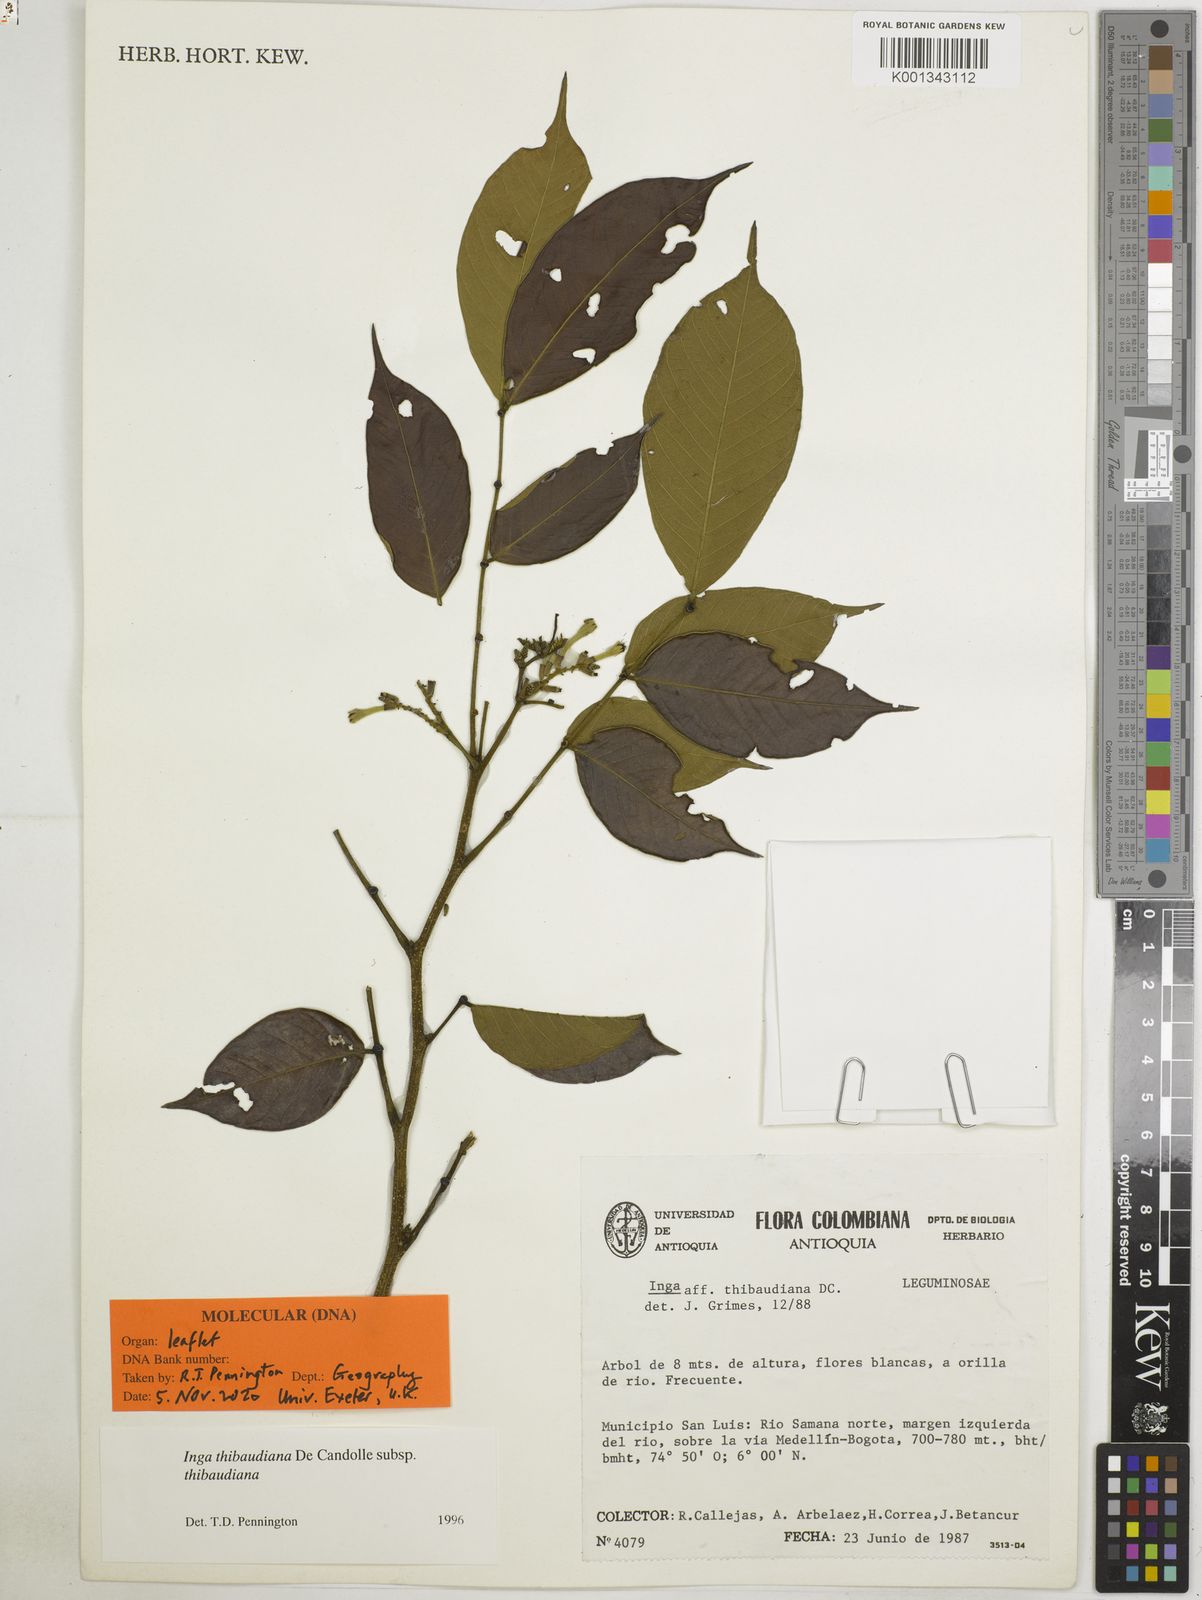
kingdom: Plantae
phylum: Tracheophyta
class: Magnoliopsida
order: Fabales
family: Fabaceae
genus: Inga
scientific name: Inga thibaudiana
